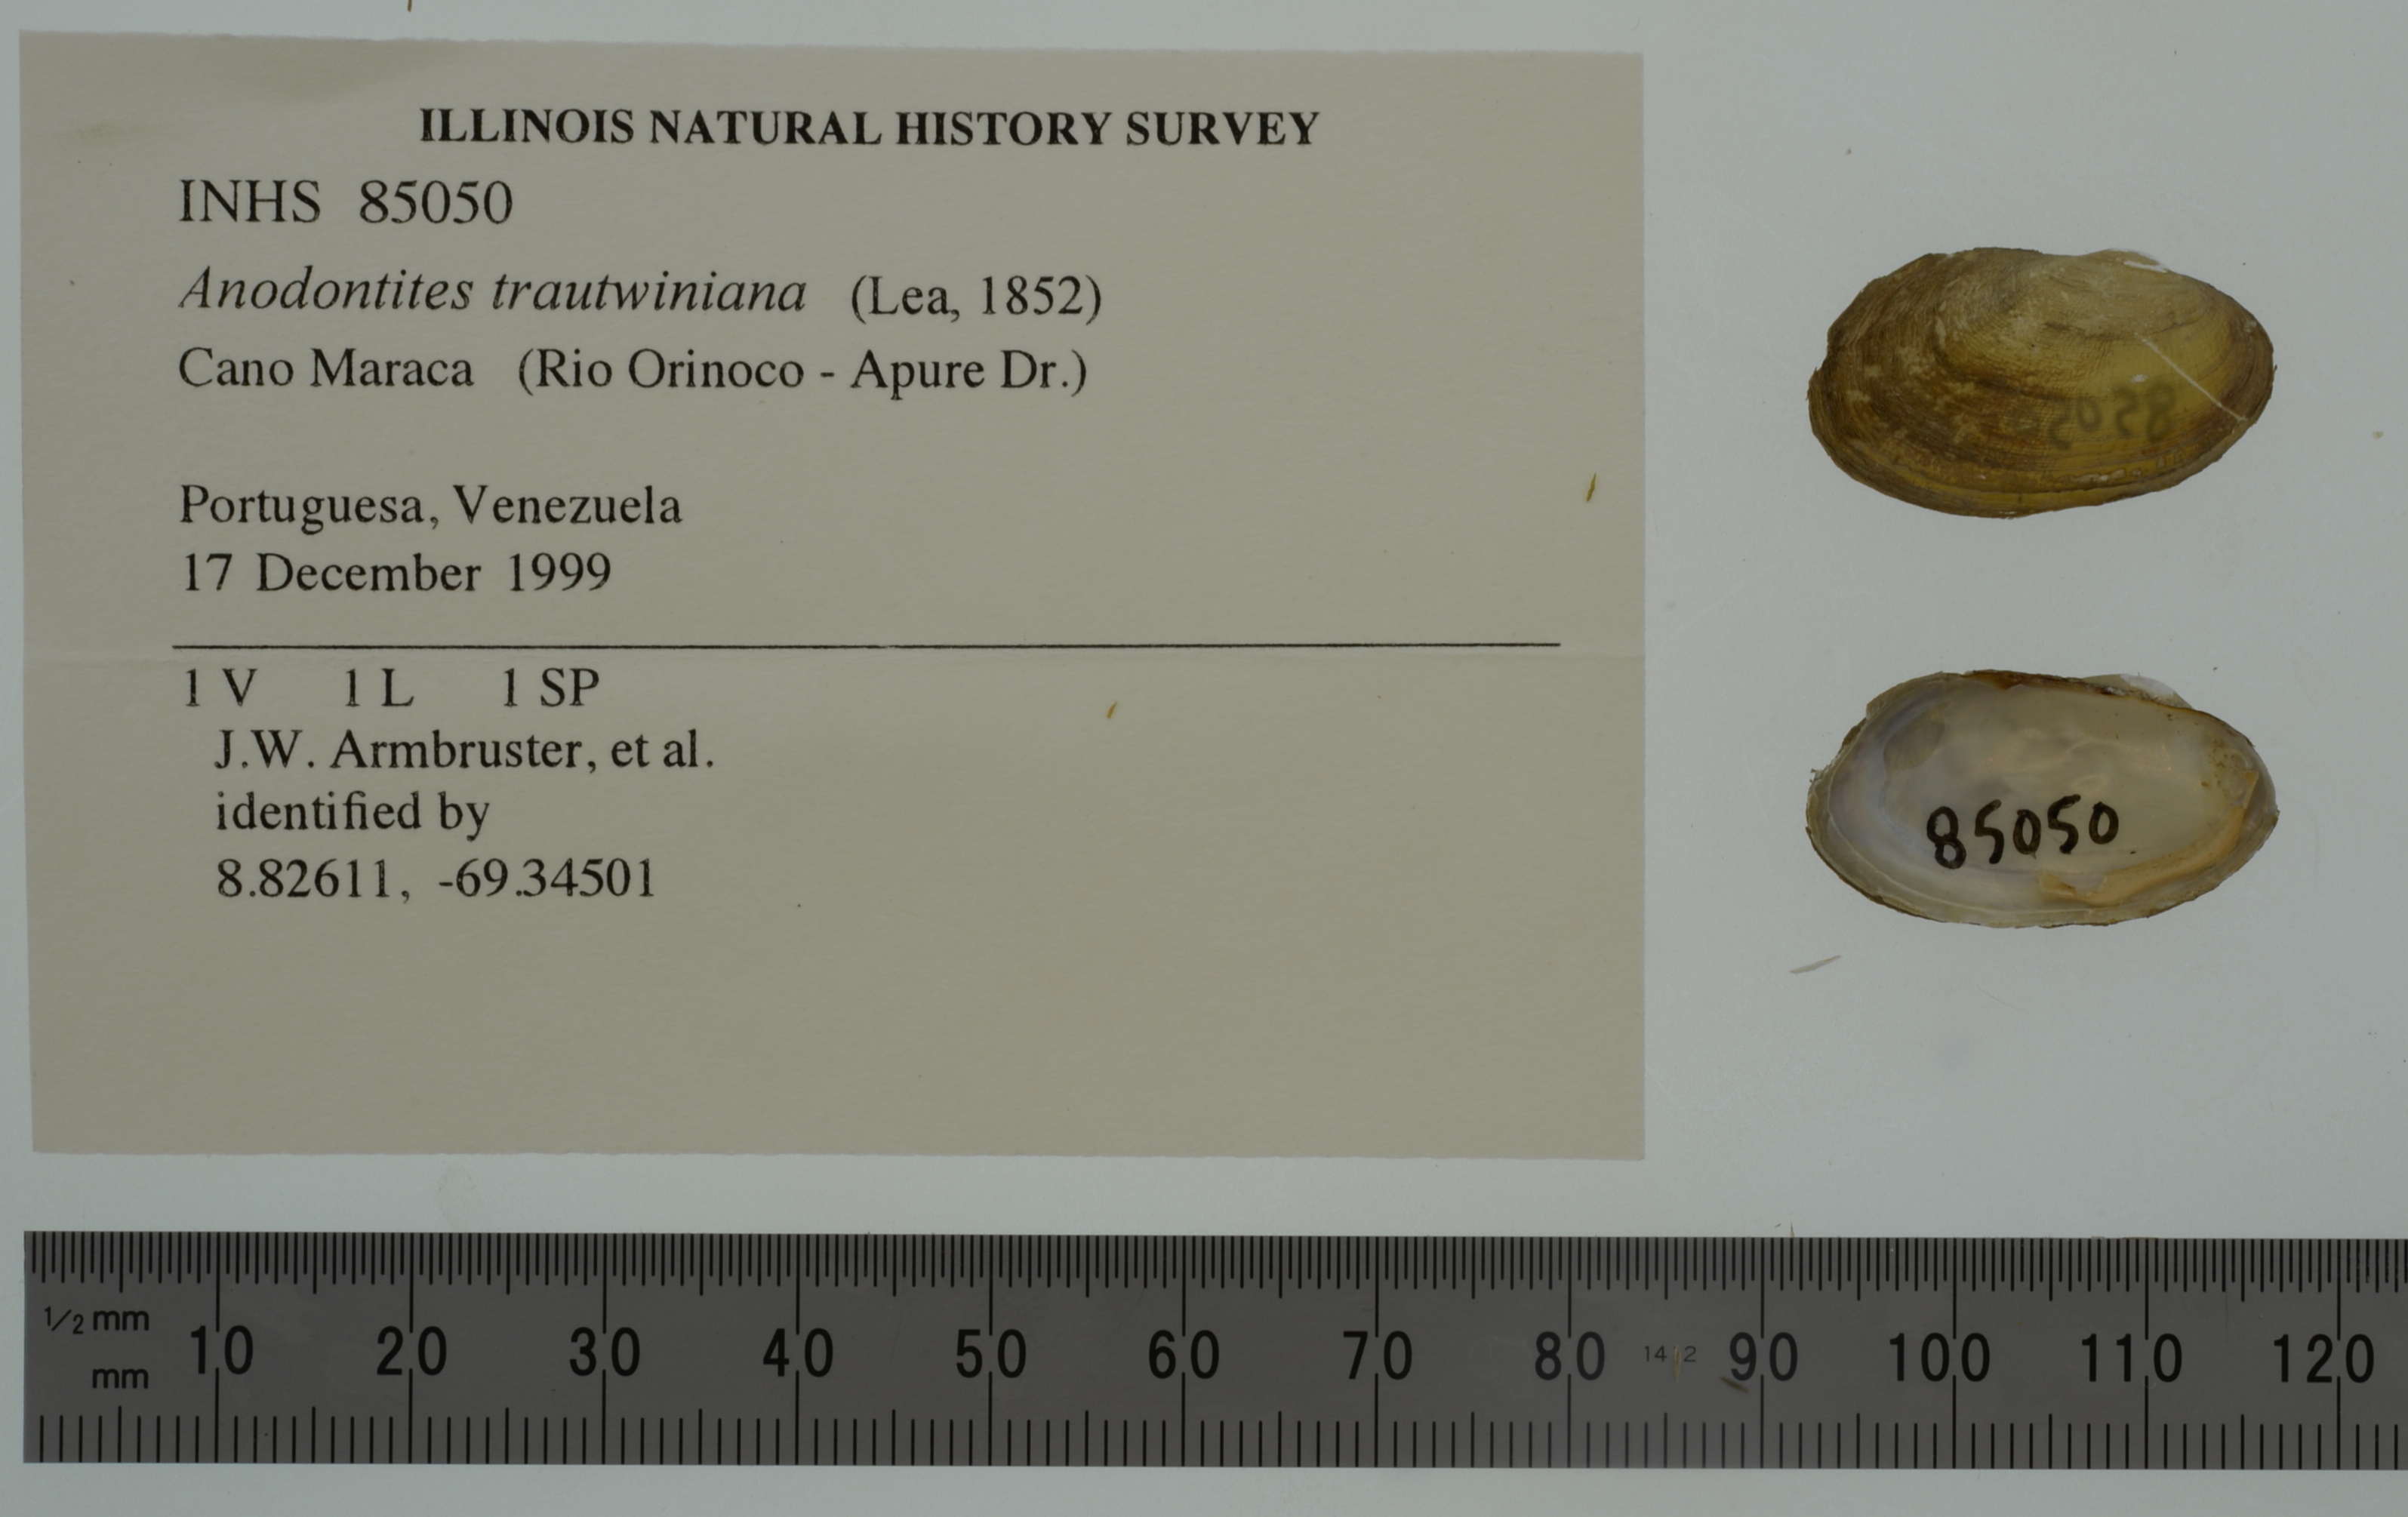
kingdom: Animalia
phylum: Mollusca
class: Bivalvia
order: Unionida
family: Mycetopodidae
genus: Anodontites
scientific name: Anodontites tortilis
